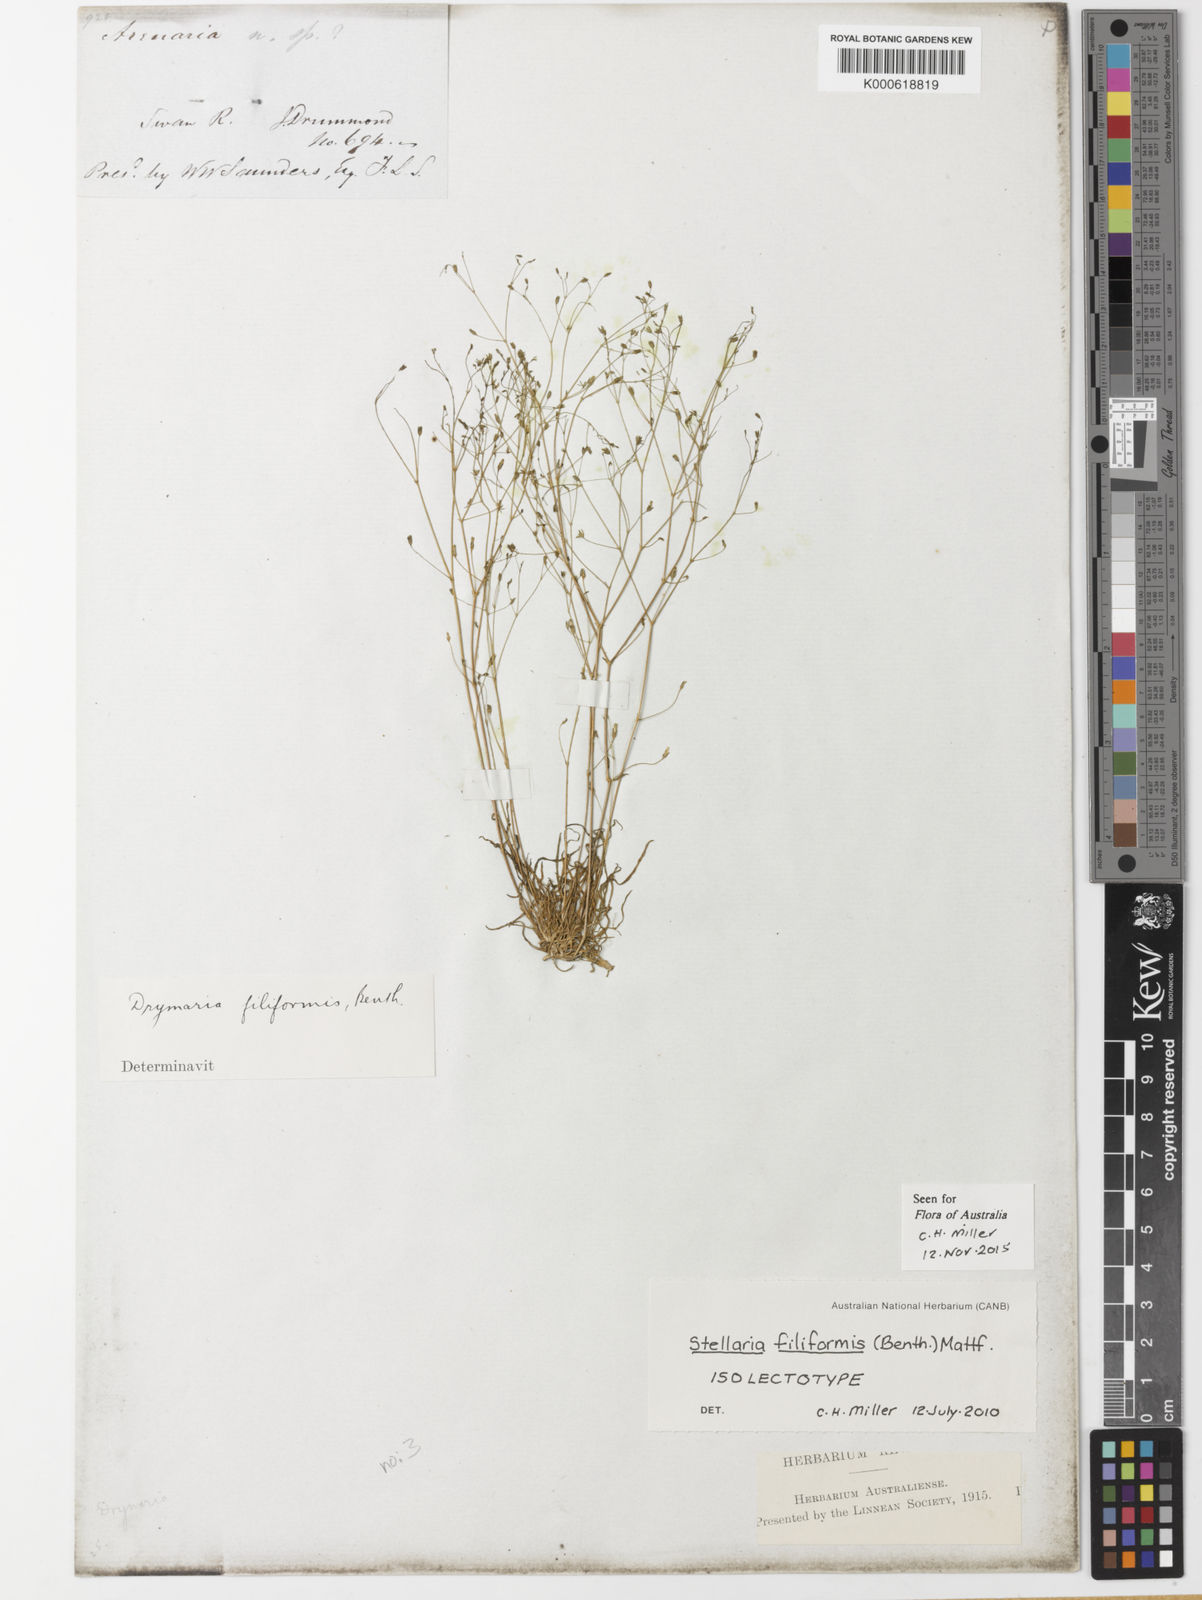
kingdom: Plantae
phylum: Tracheophyta
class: Magnoliopsida
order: Caryophyllales
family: Caryophyllaceae
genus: Stellaria
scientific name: Stellaria filiformis
